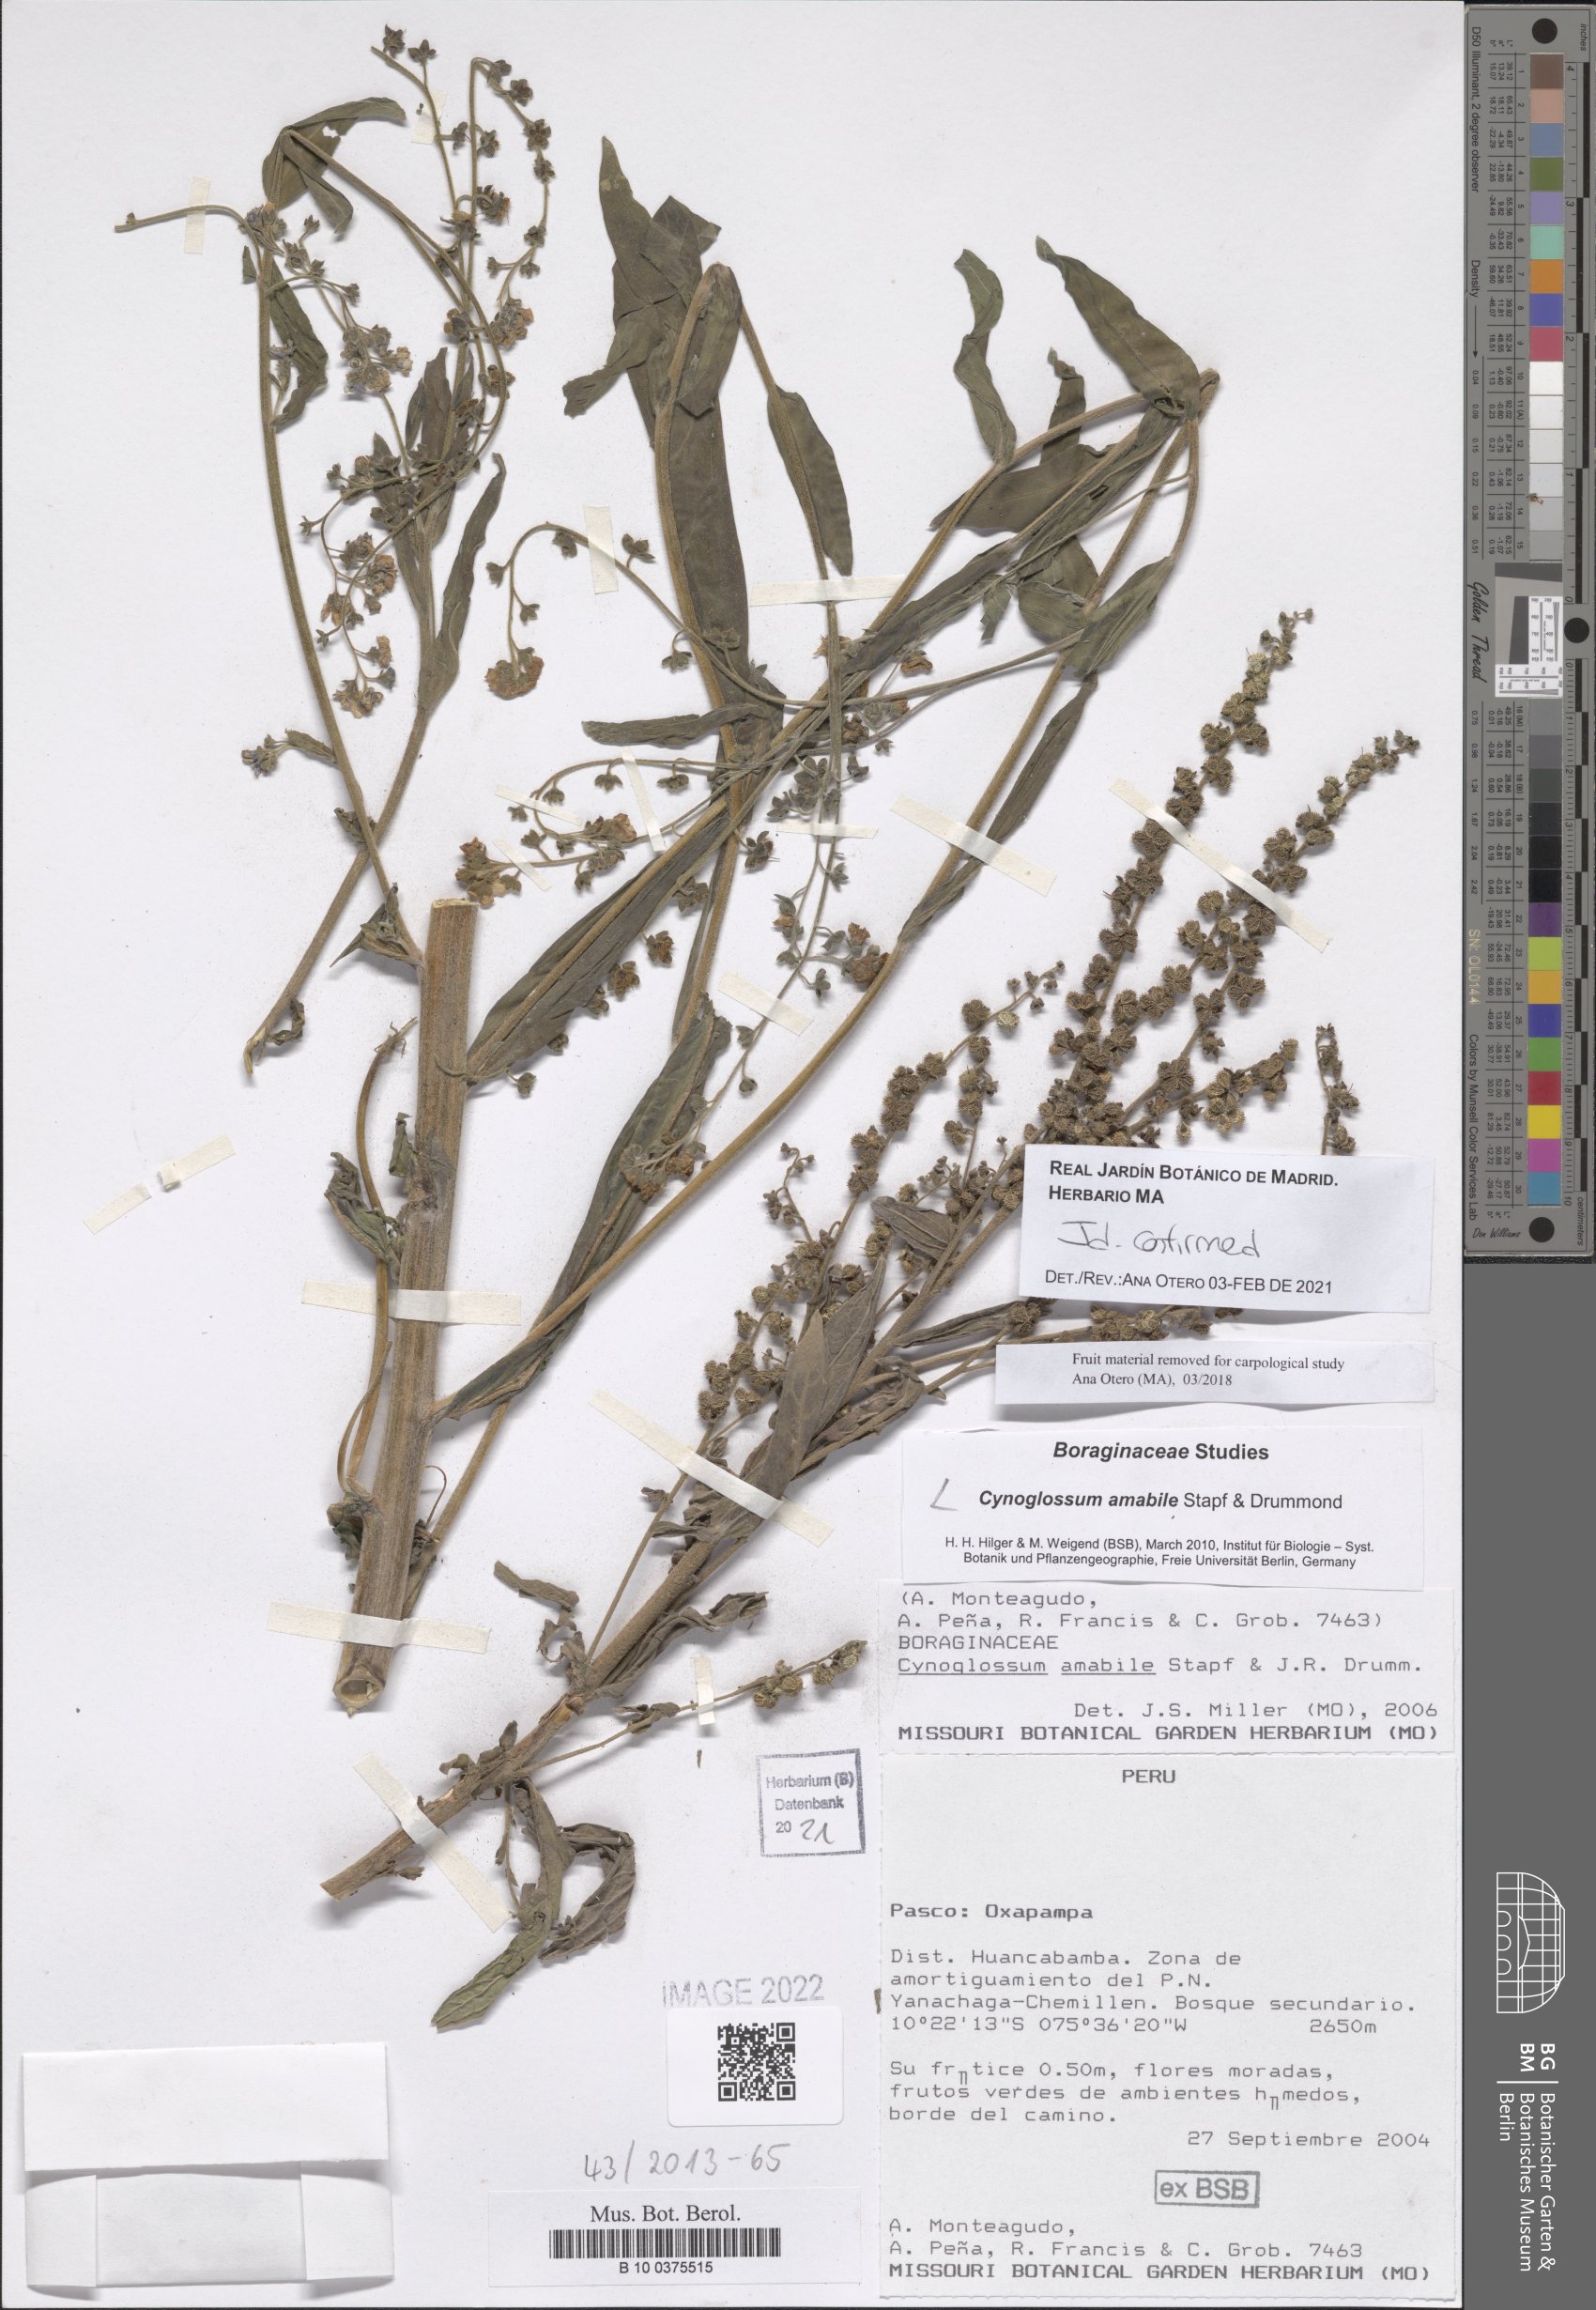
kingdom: Plantae
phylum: Tracheophyta
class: Magnoliopsida
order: Boraginales
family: Boraginaceae
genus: Cynoglossum
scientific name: Cynoglossum amabile
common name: Chinese hound's tongue
